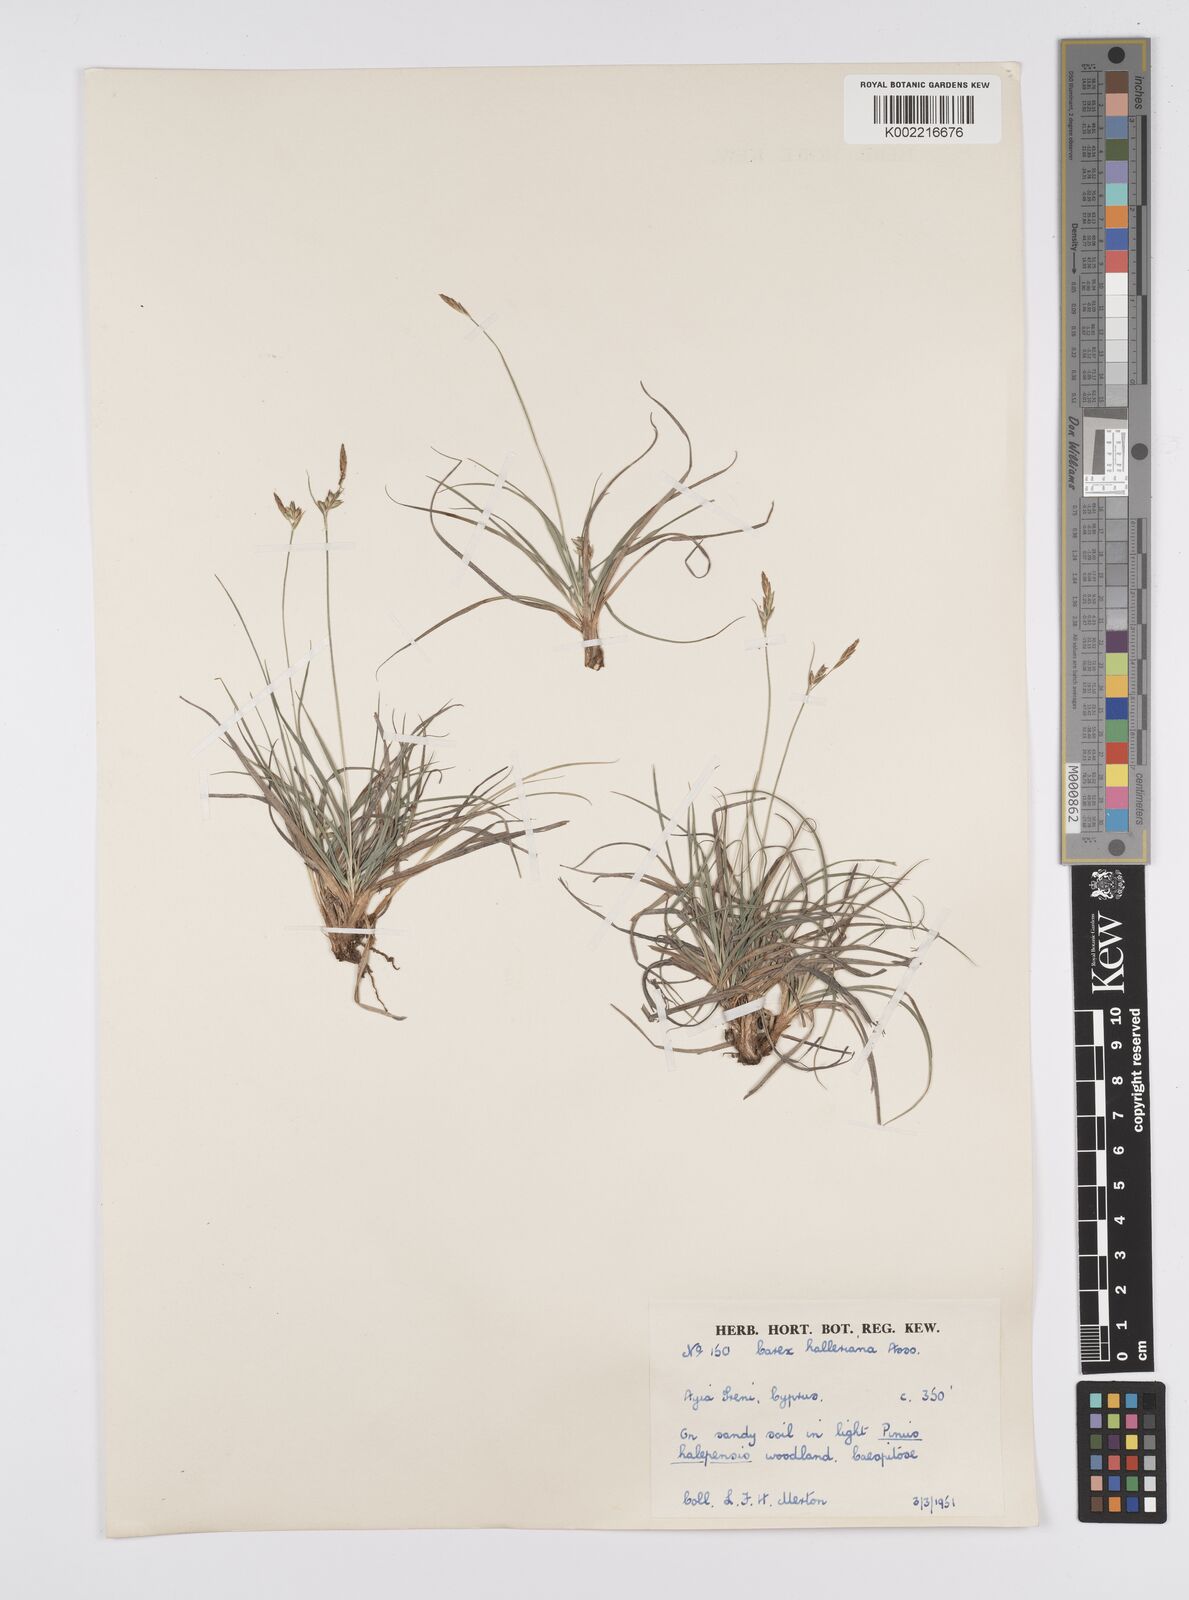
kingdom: Plantae
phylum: Tracheophyta
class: Liliopsida
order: Poales
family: Cyperaceae
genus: Carex
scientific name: Carex halleriana
